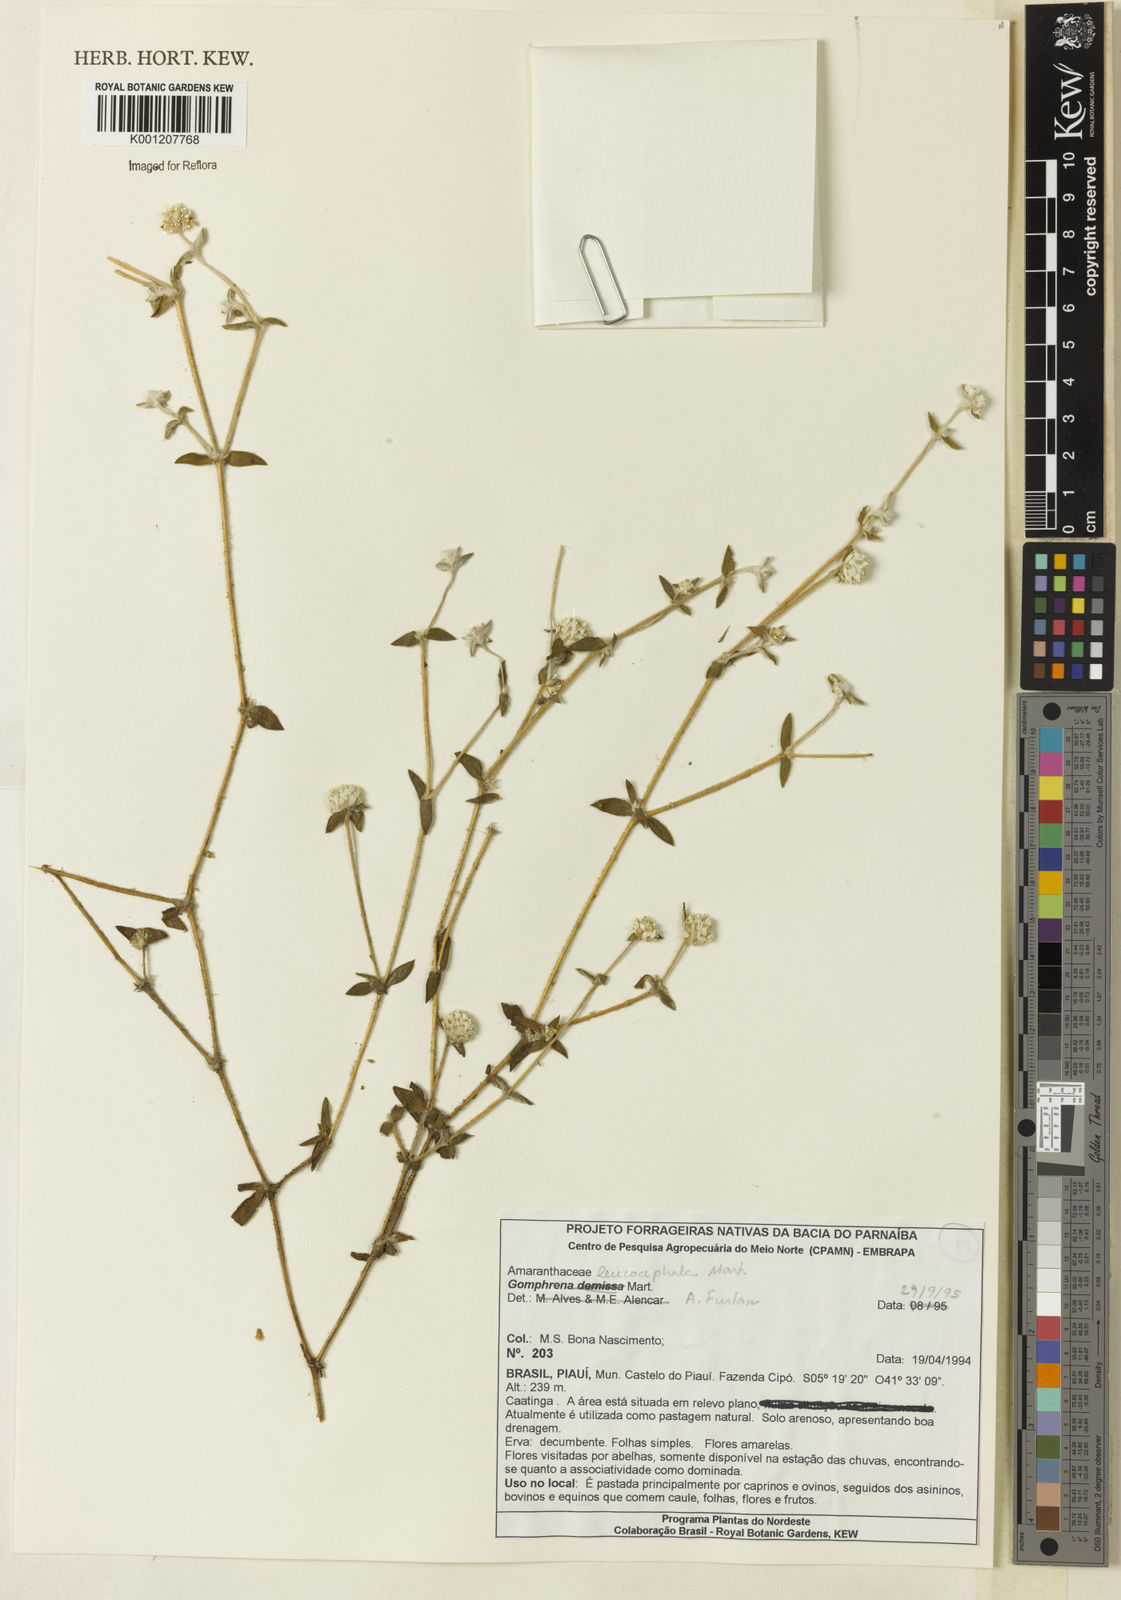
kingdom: Plantae
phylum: Tracheophyta
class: Magnoliopsida
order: Caryophyllales
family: Amaranthaceae
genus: Gomphrena
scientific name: Gomphrena leucocephala
